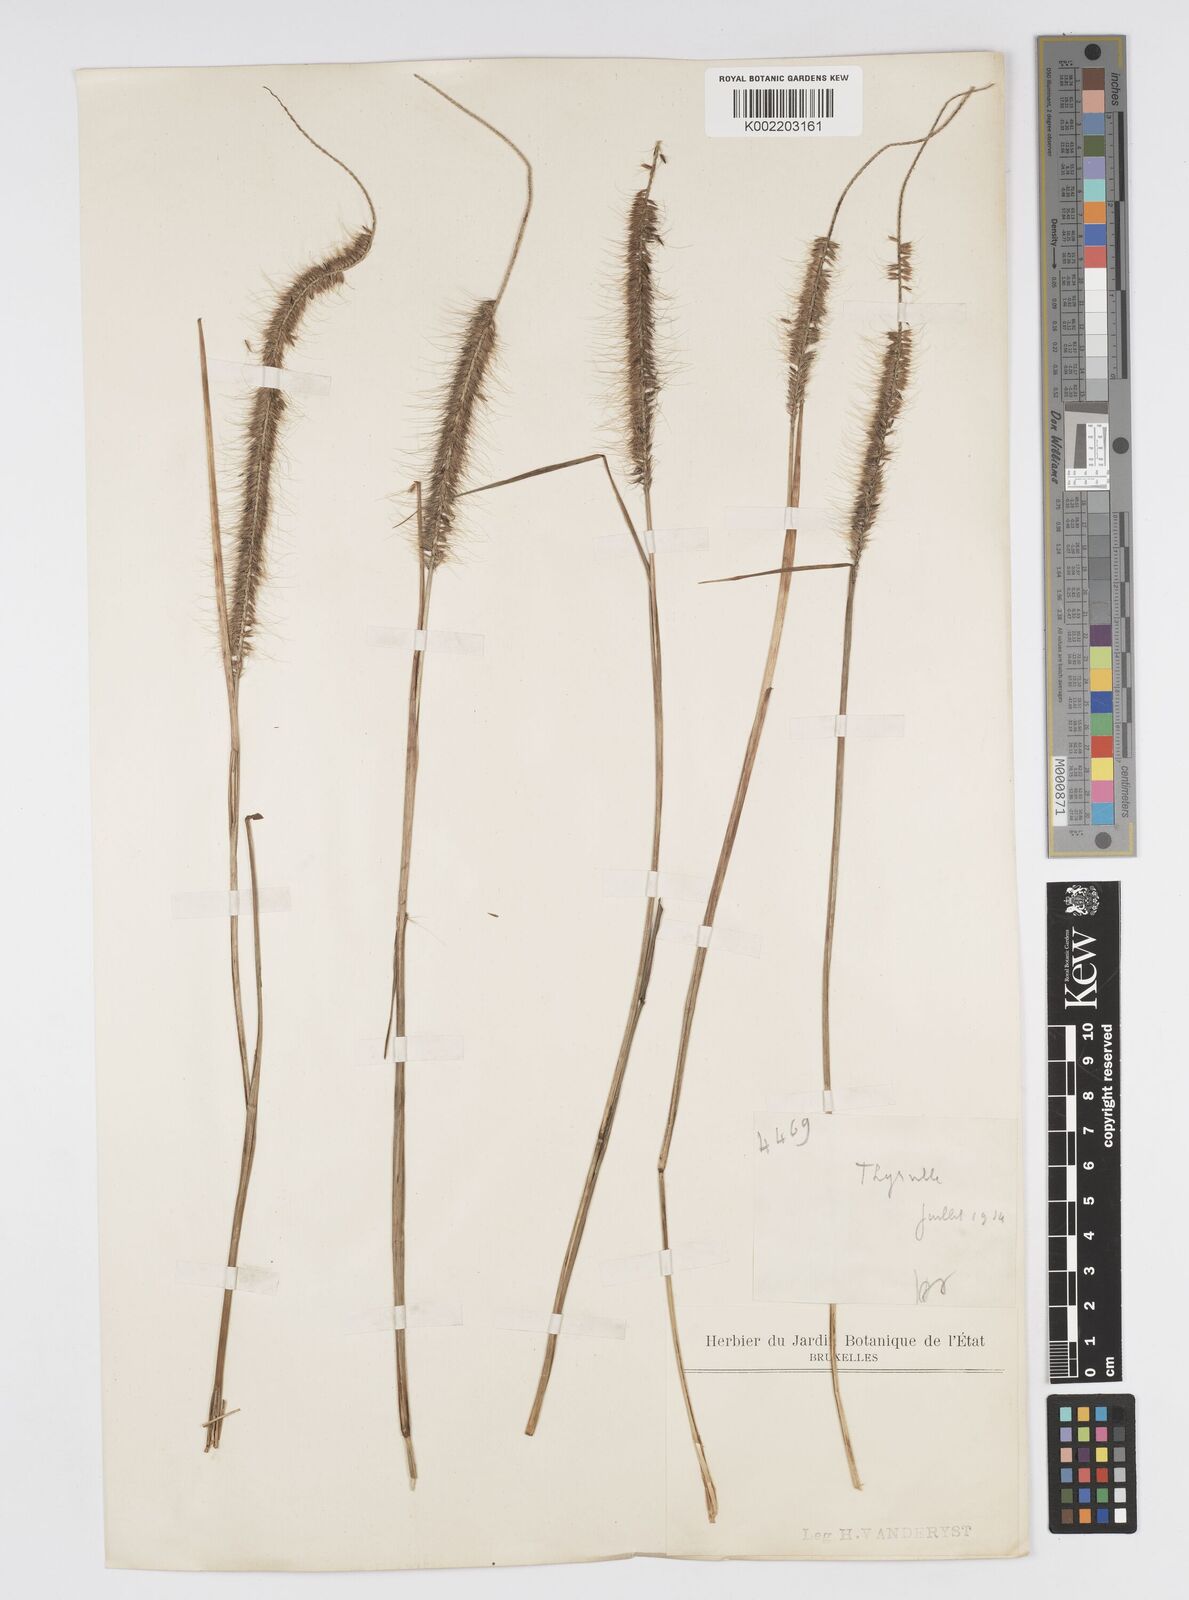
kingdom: Plantae
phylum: Tracheophyta
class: Liliopsida
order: Poales
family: Poaceae
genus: Cenchrus
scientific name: Cenchrus setosus
